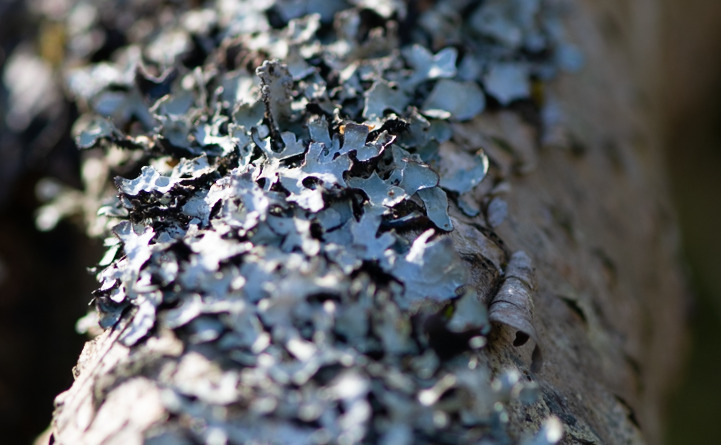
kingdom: Fungi
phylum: Ascomycota
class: Lecanoromycetes
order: Lecanorales
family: Parmeliaceae
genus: Parmelia
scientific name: Parmelia sulcata
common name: Rynket skållav
